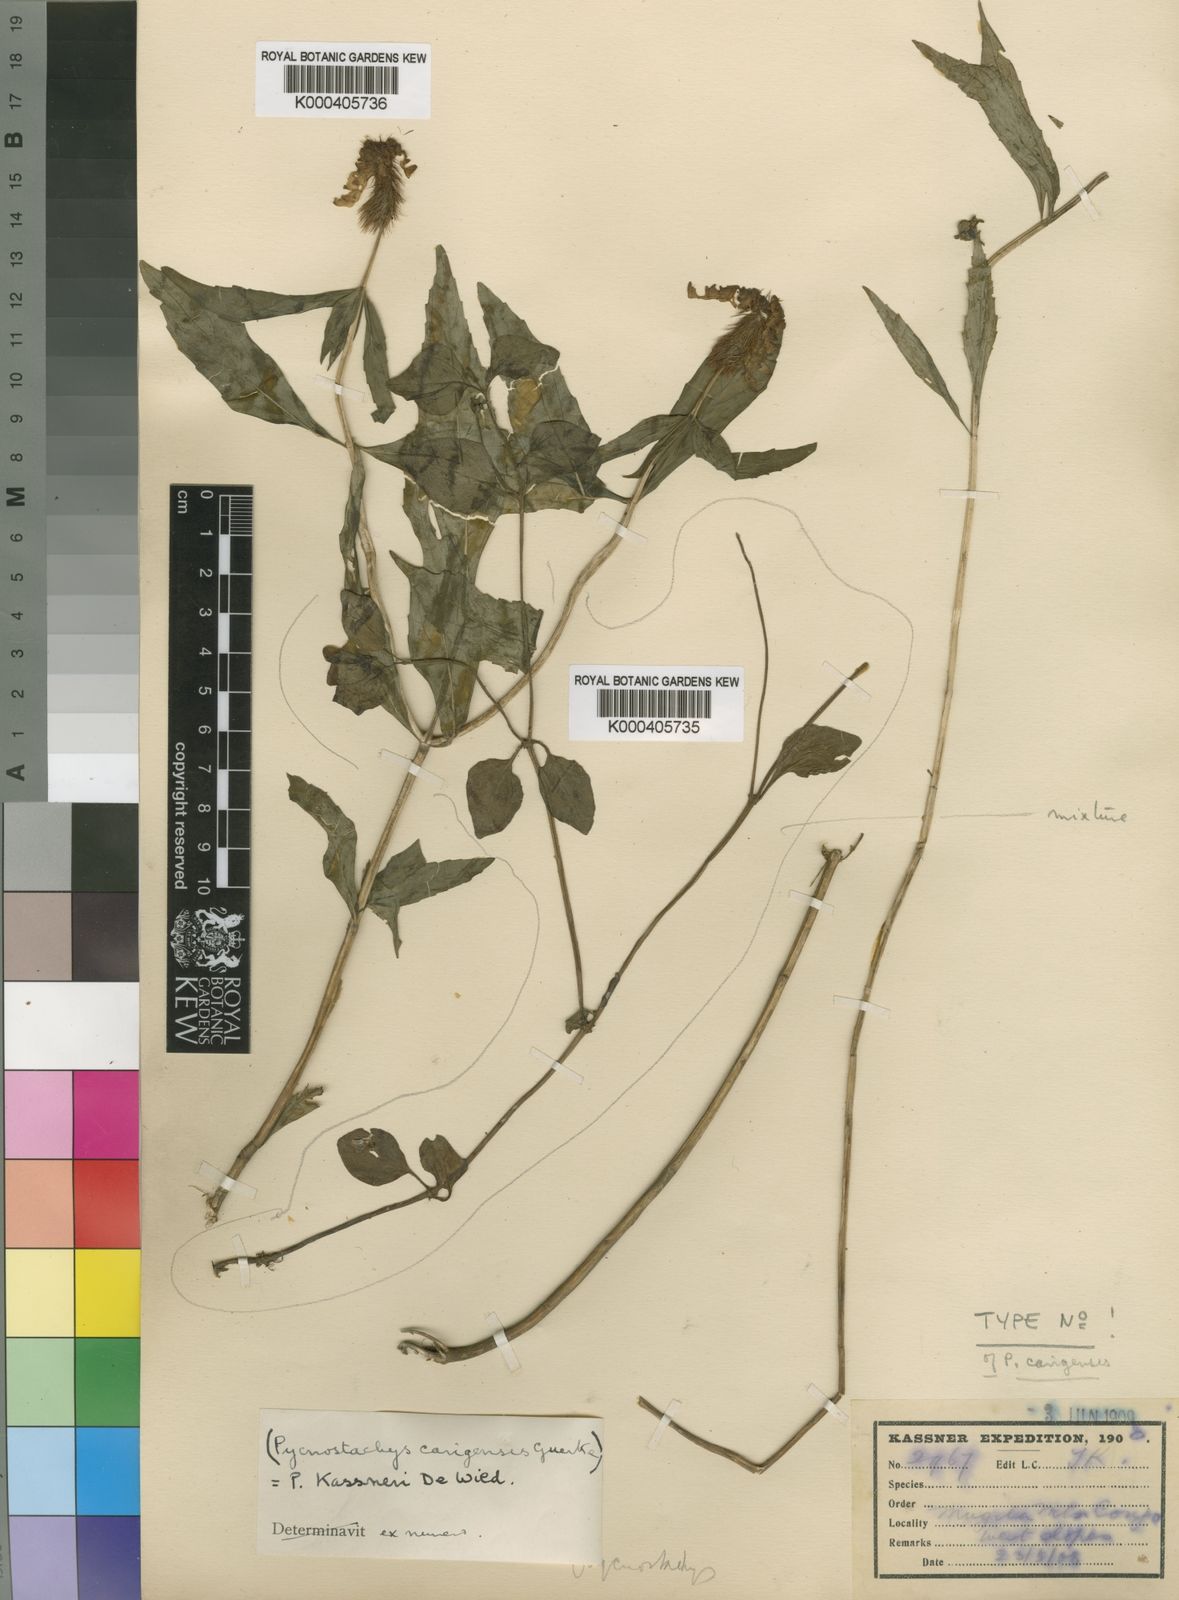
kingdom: Plantae
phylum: Tracheophyta
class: Magnoliopsida
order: Lamiales
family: Lamiaceae
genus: Coleus
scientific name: Coleus scruposus
